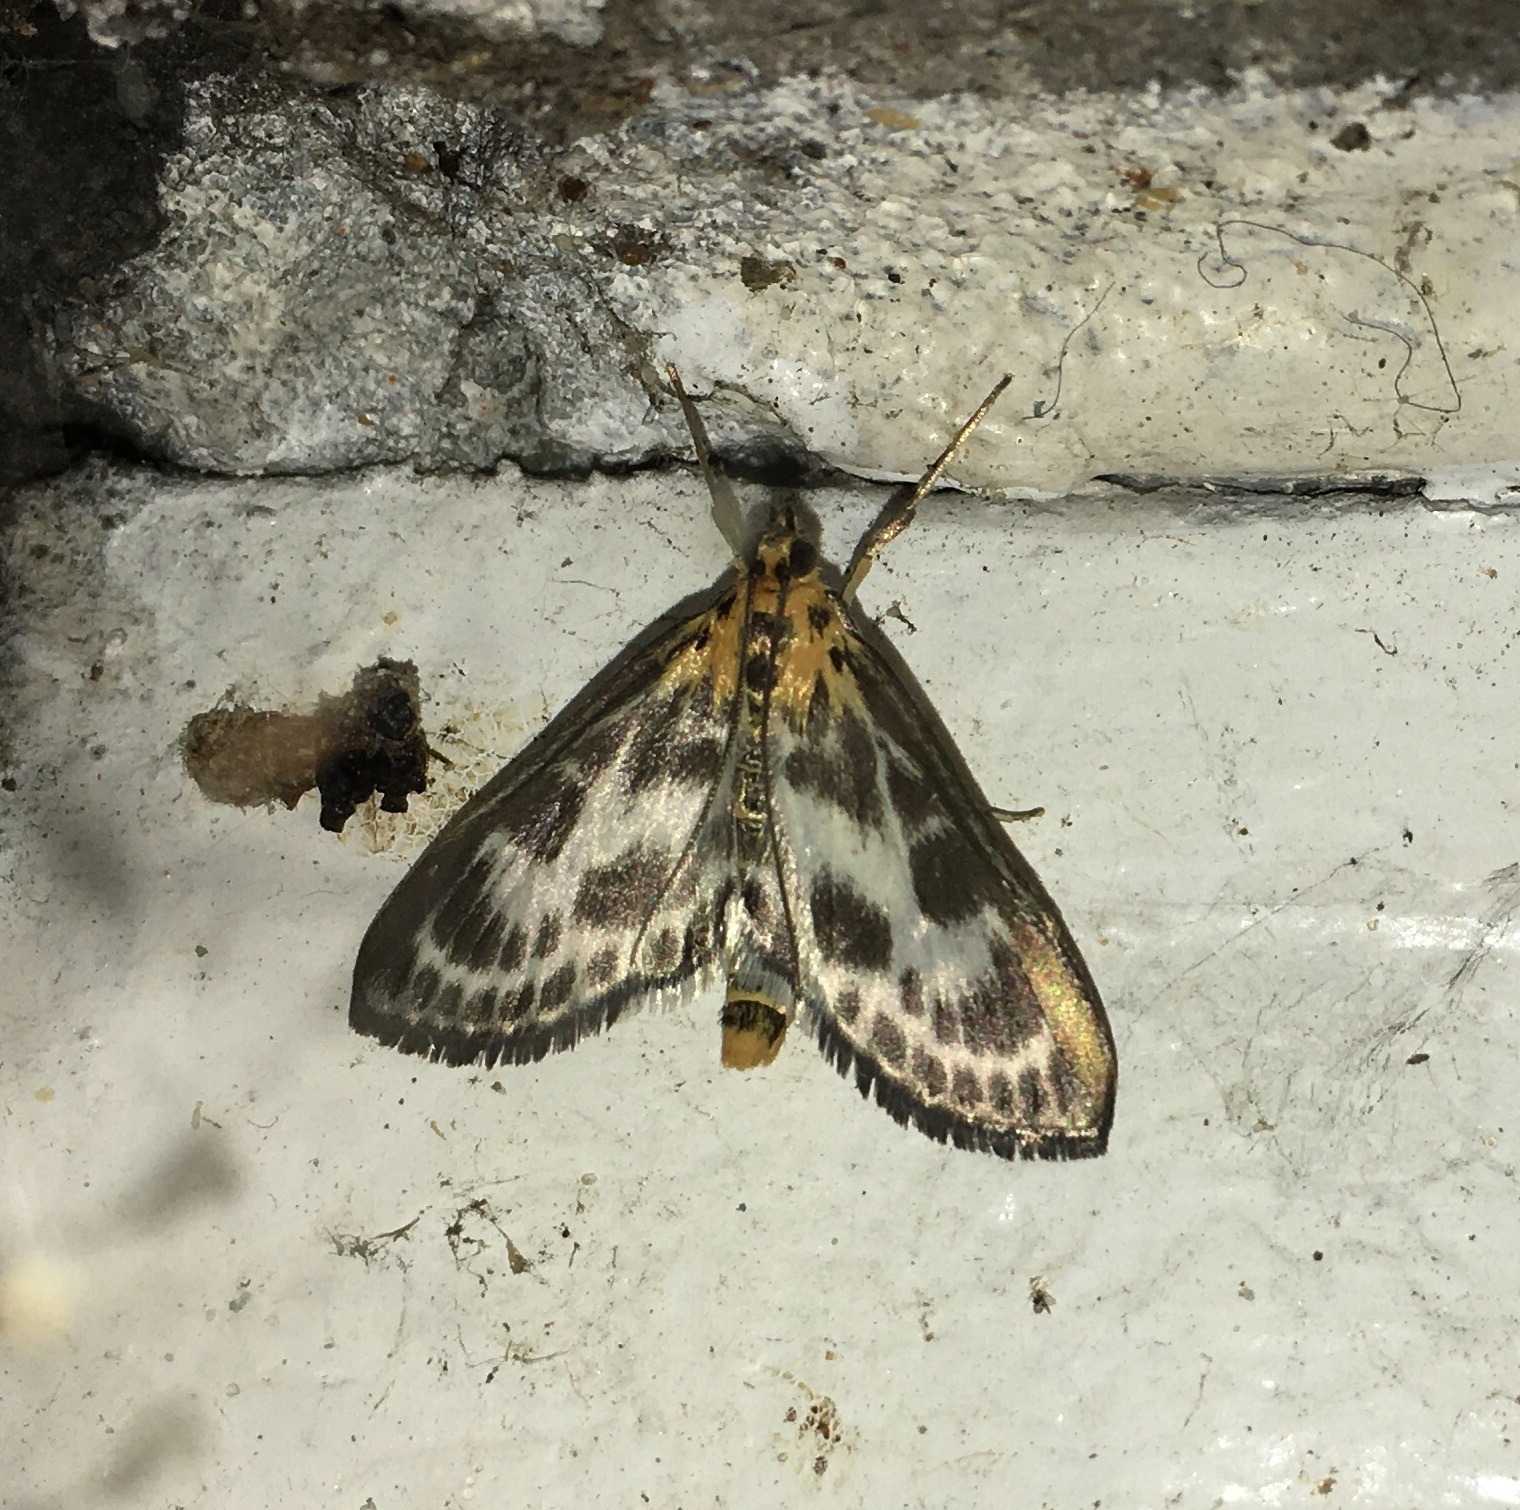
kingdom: Animalia
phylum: Arthropoda
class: Insecta
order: Lepidoptera
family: Crambidae
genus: Anania
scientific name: Anania hortulata
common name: Nældehalvmøl
